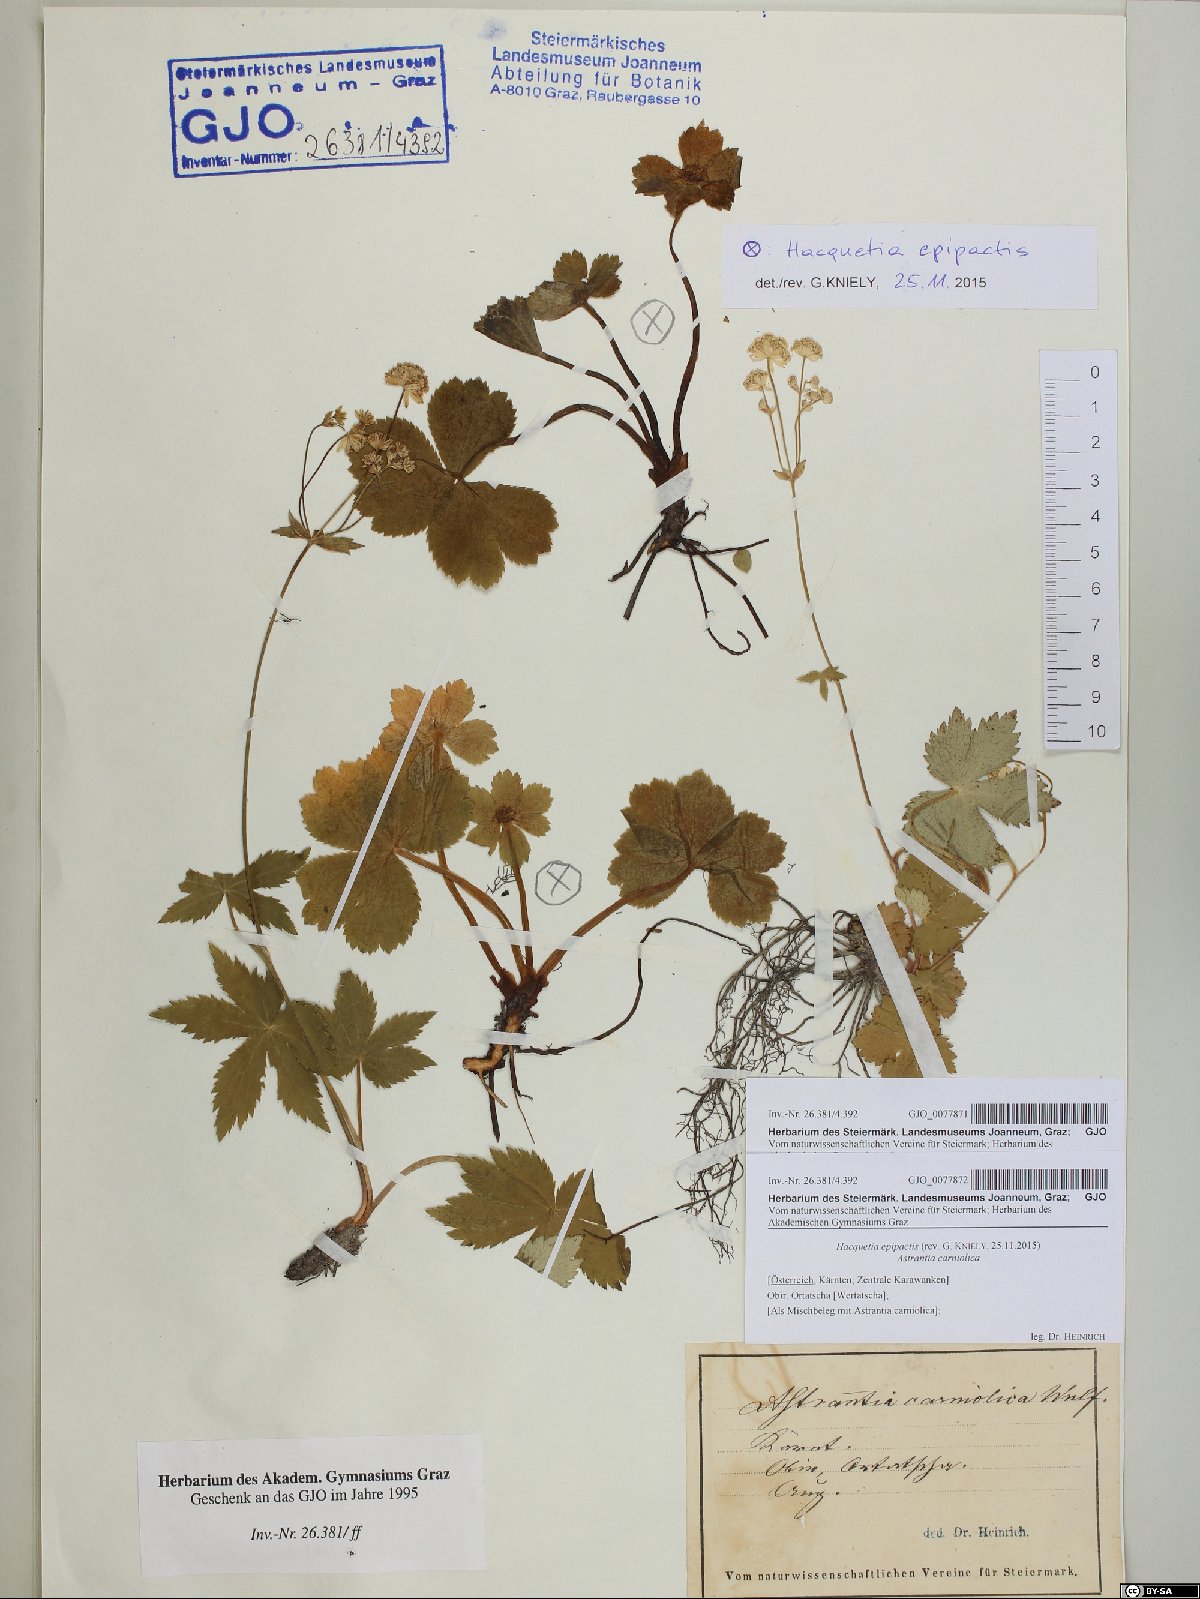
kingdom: Plantae
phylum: Tracheophyta
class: Magnoliopsida
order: Apiales
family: Apiaceae
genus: Sanicula
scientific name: Sanicula epipactis
